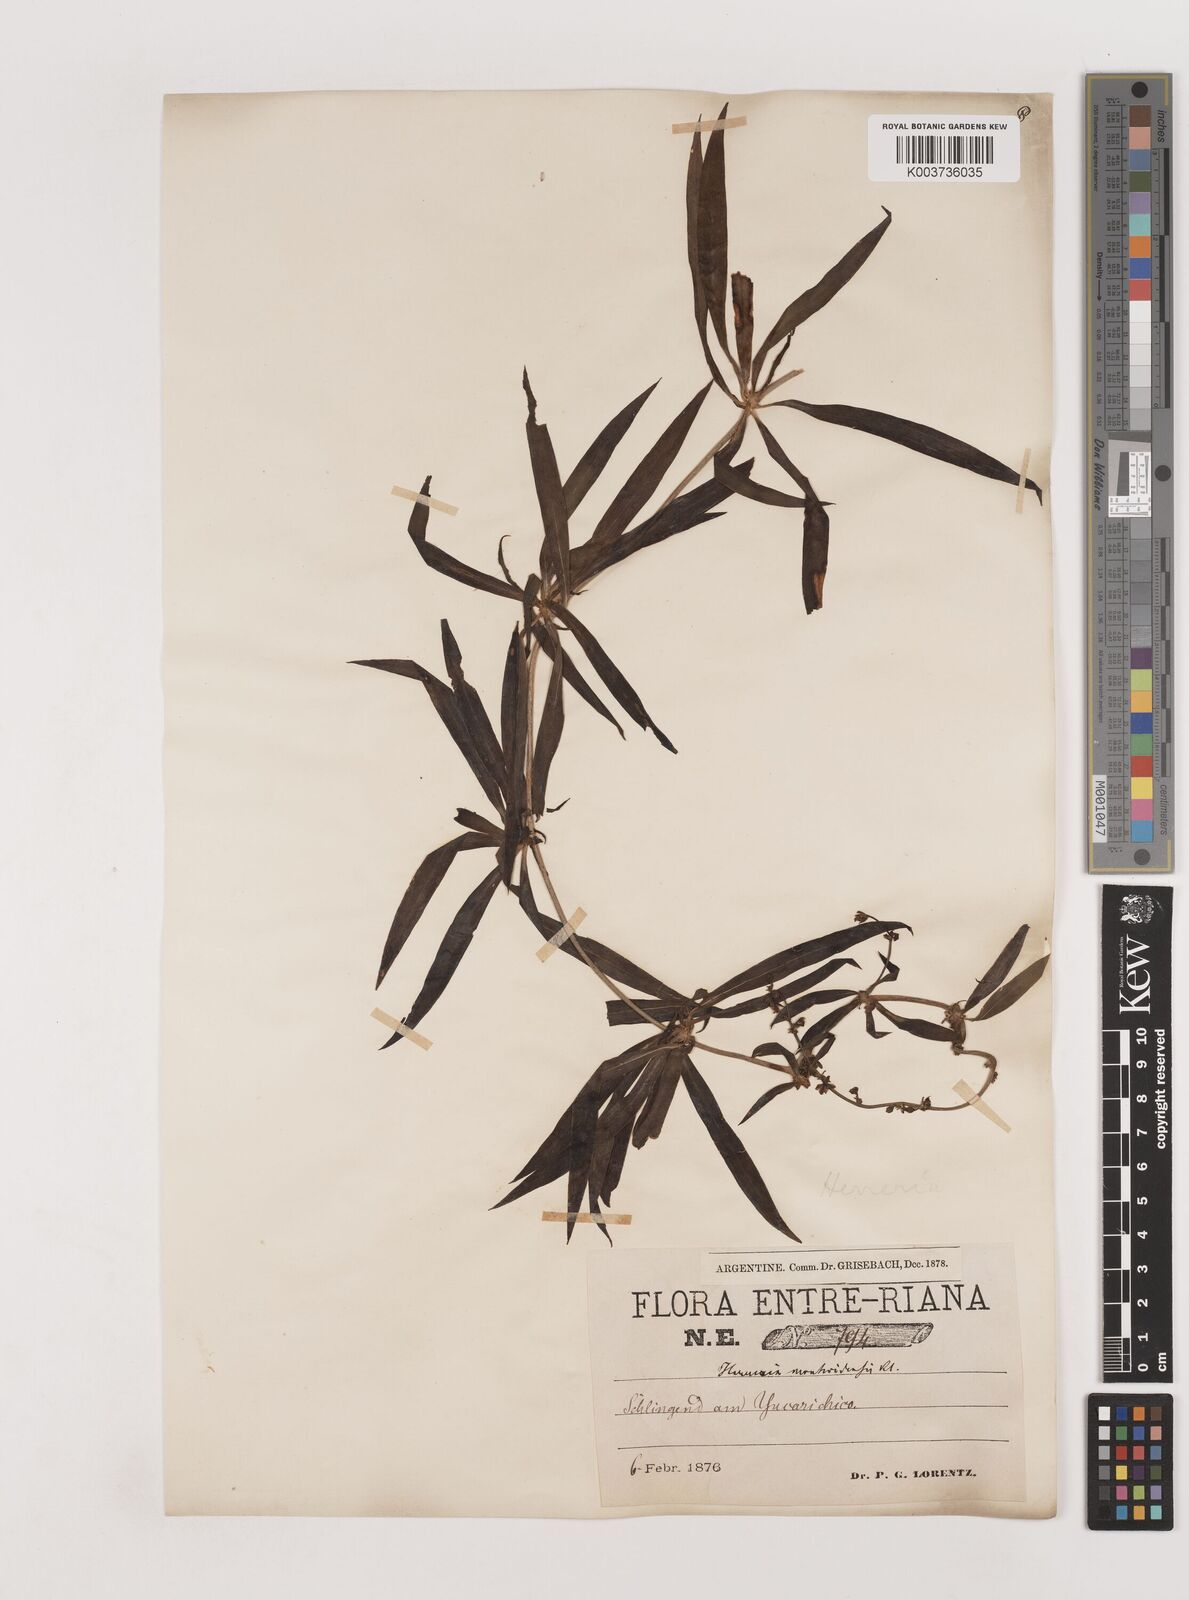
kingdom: Plantae
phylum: Tracheophyta
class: Liliopsida
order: Asparagales
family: Asparagaceae
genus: Herreria
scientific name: Herreria montevidensis
